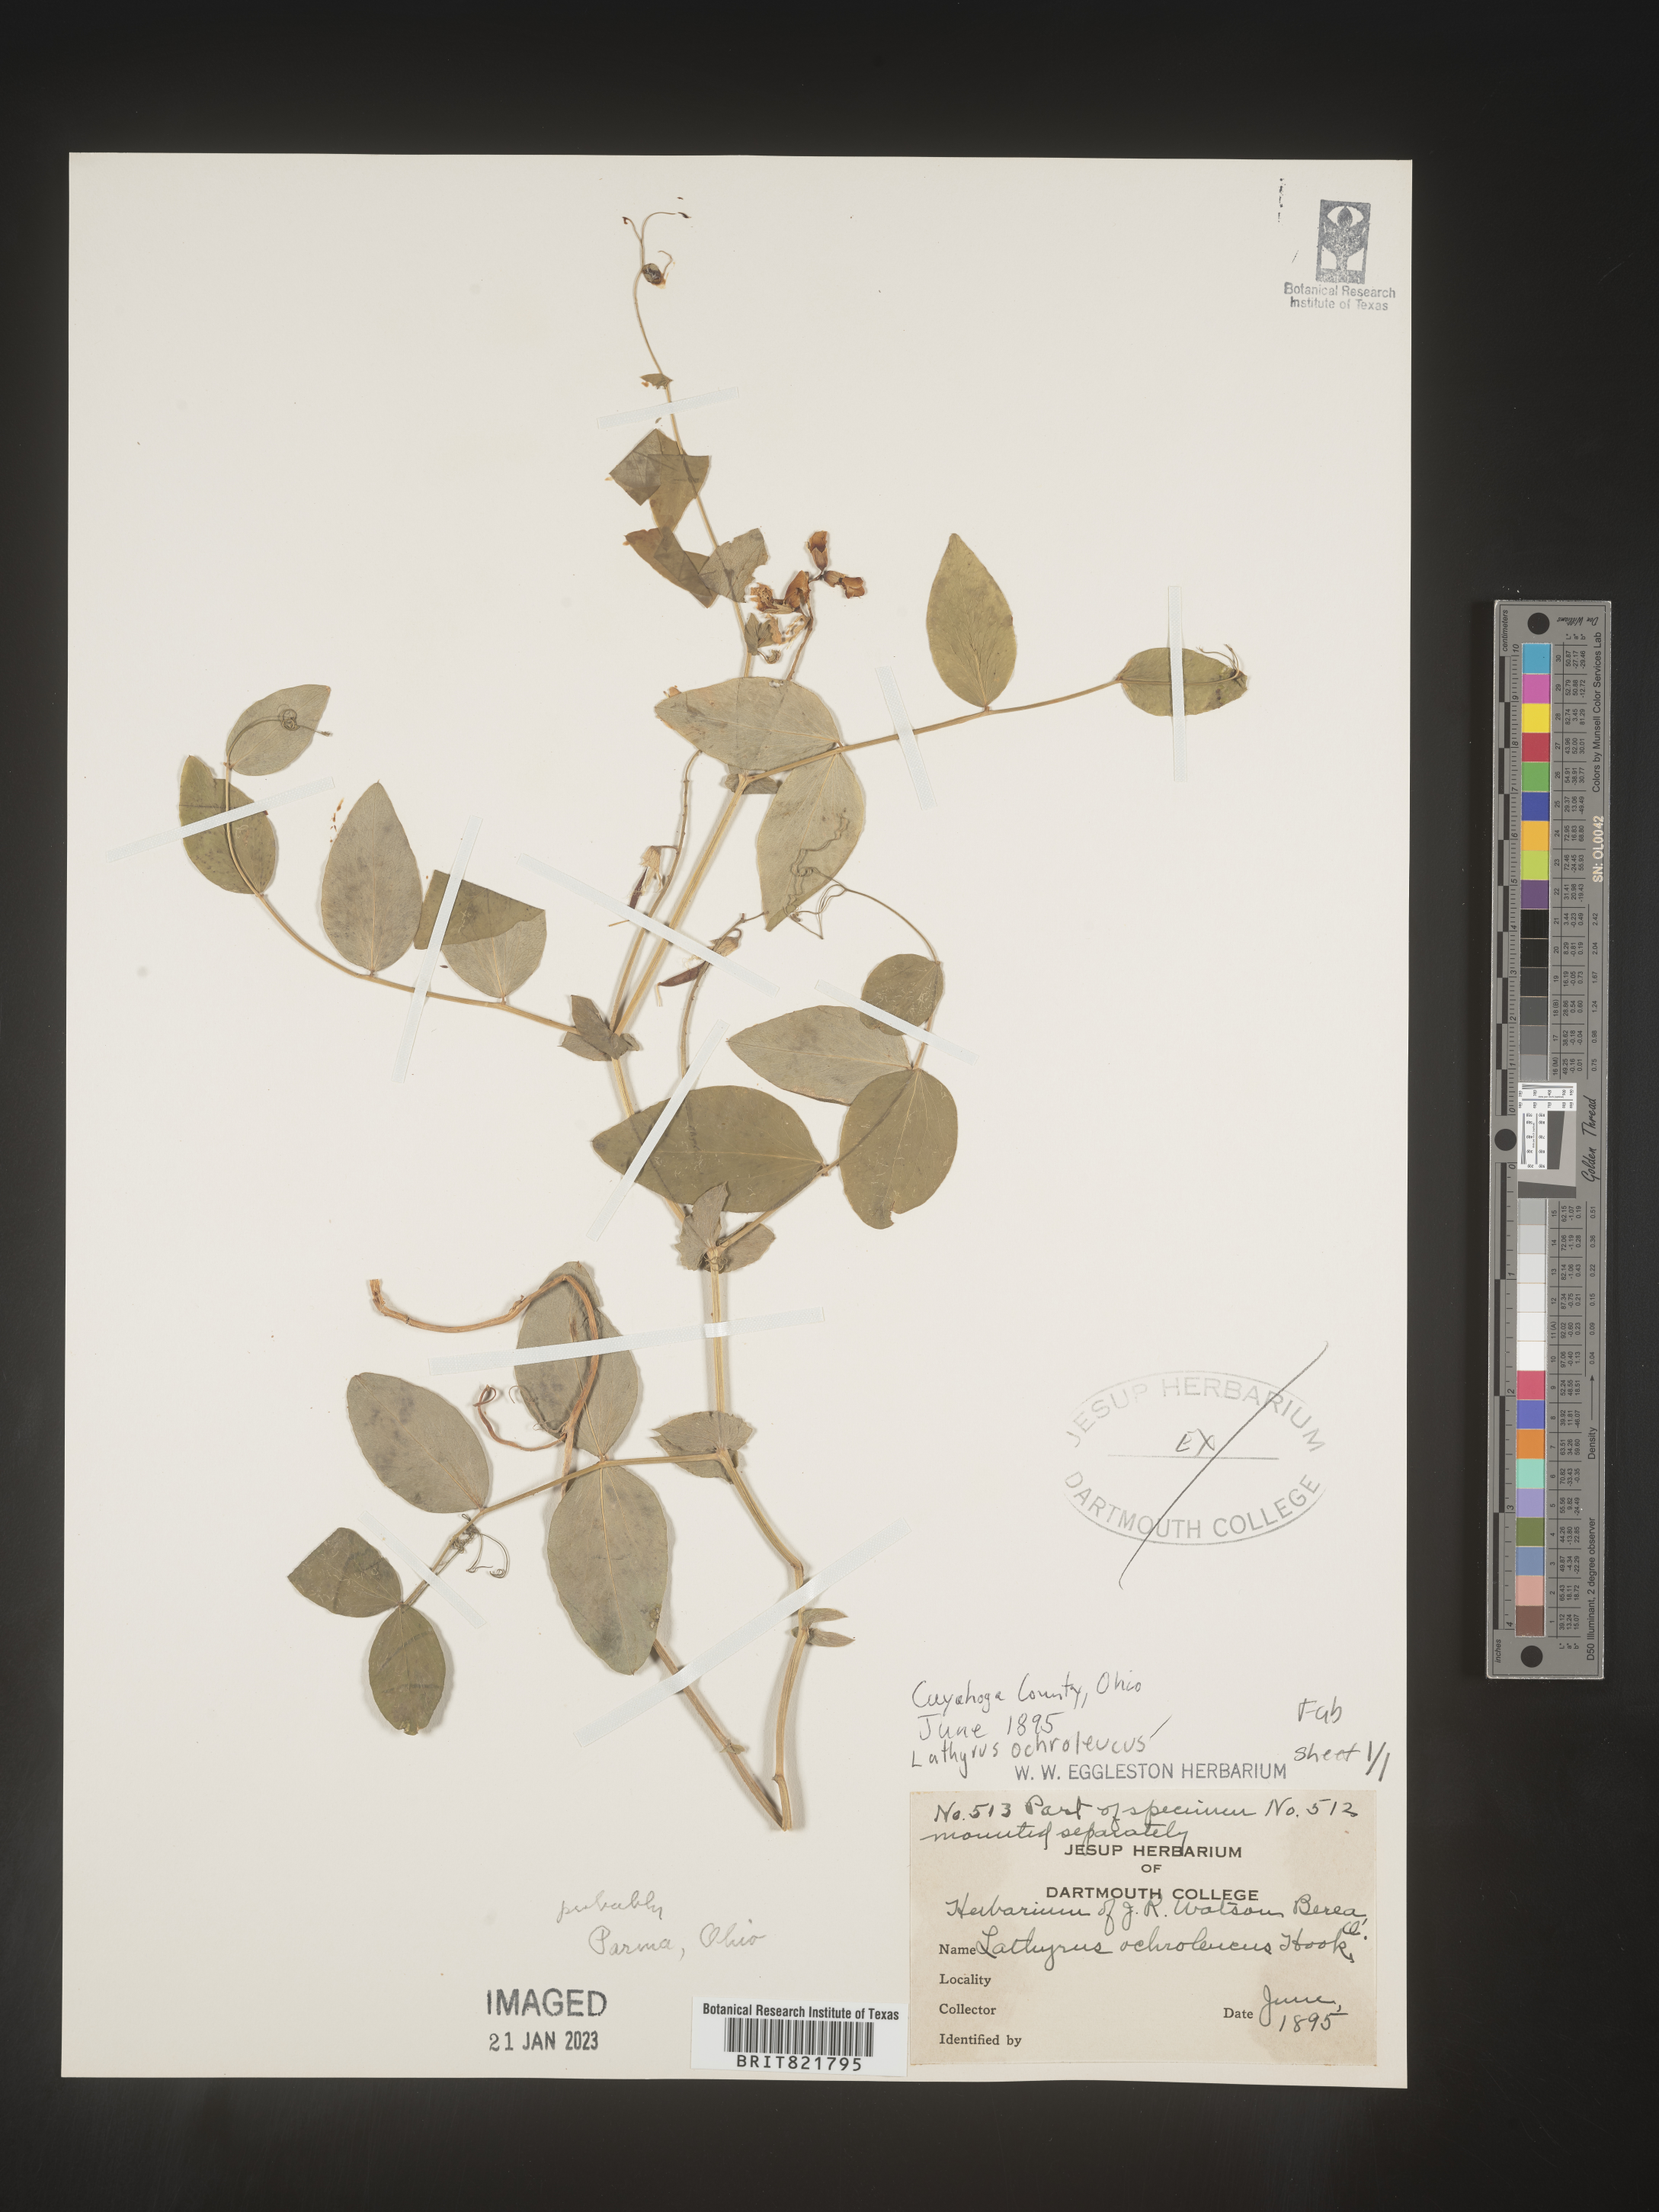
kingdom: Plantae
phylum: Tracheophyta
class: Magnoliopsida
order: Fabales
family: Fabaceae
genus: Lathyrus
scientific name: Lathyrus
